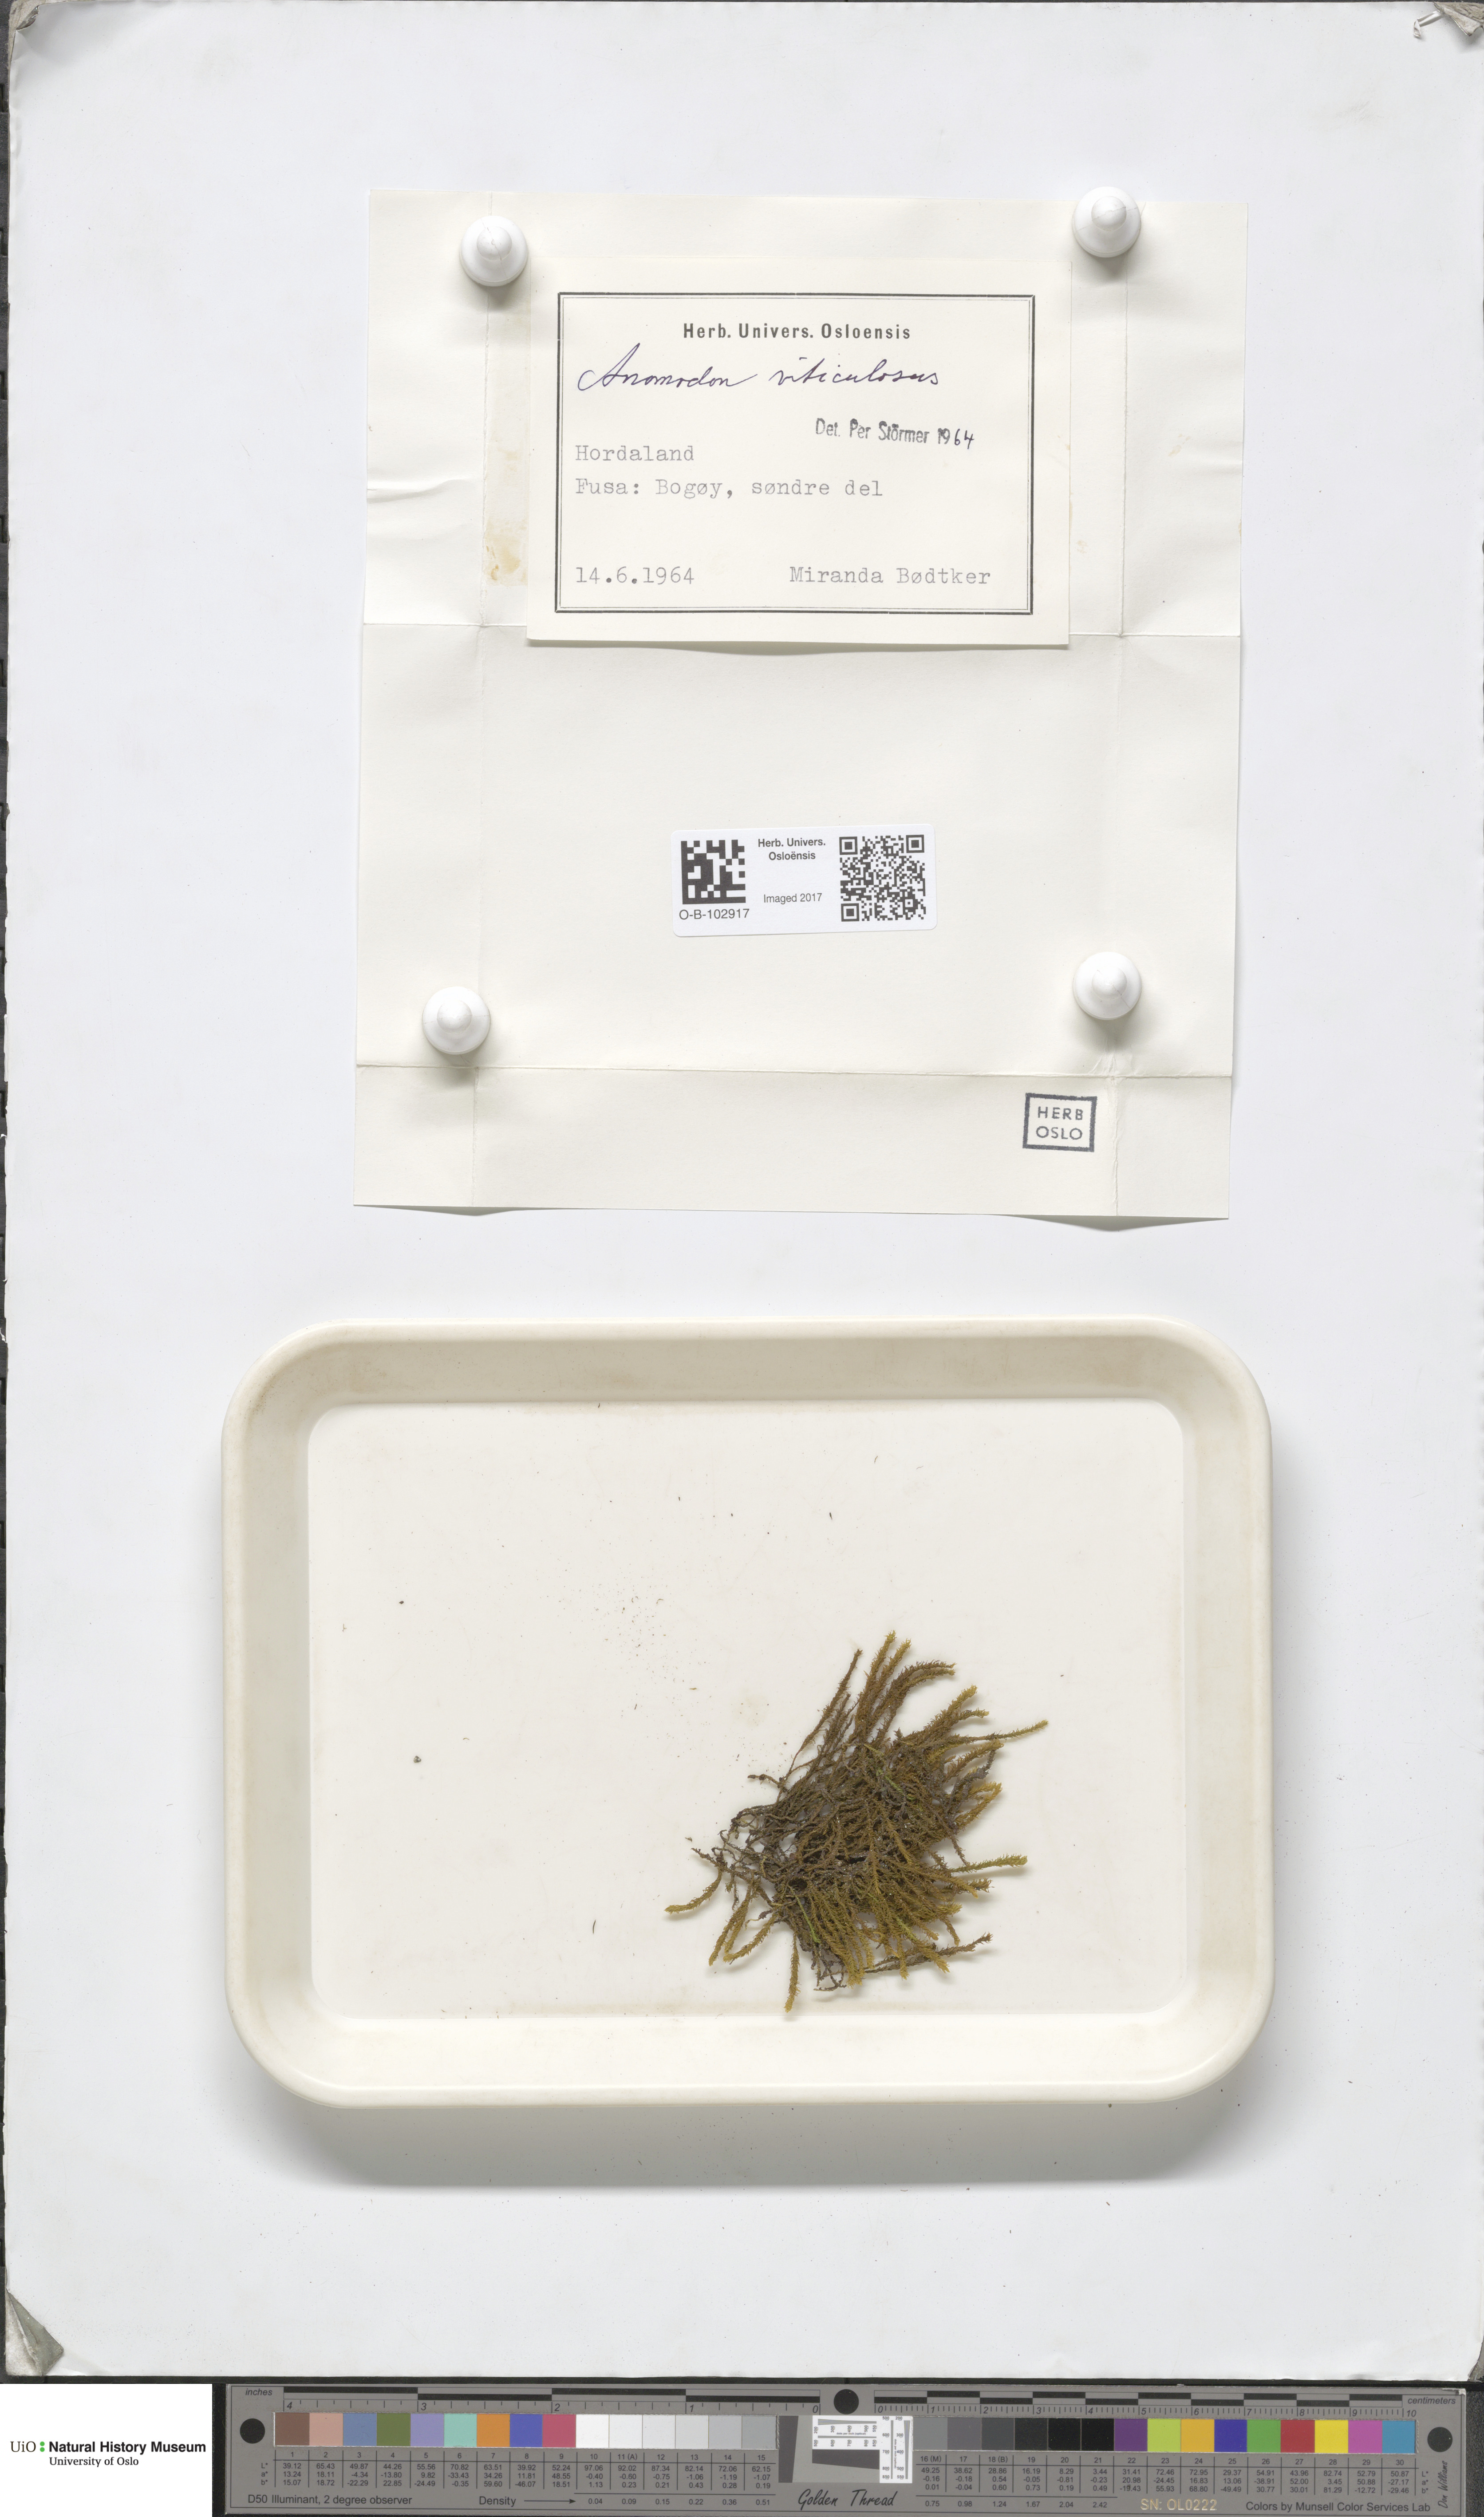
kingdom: Plantae
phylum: Bryophyta
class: Bryopsida
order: Hypnales
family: Anomodontaceae
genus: Anomodon
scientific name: Anomodon viticulosus
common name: Tall anomodon
